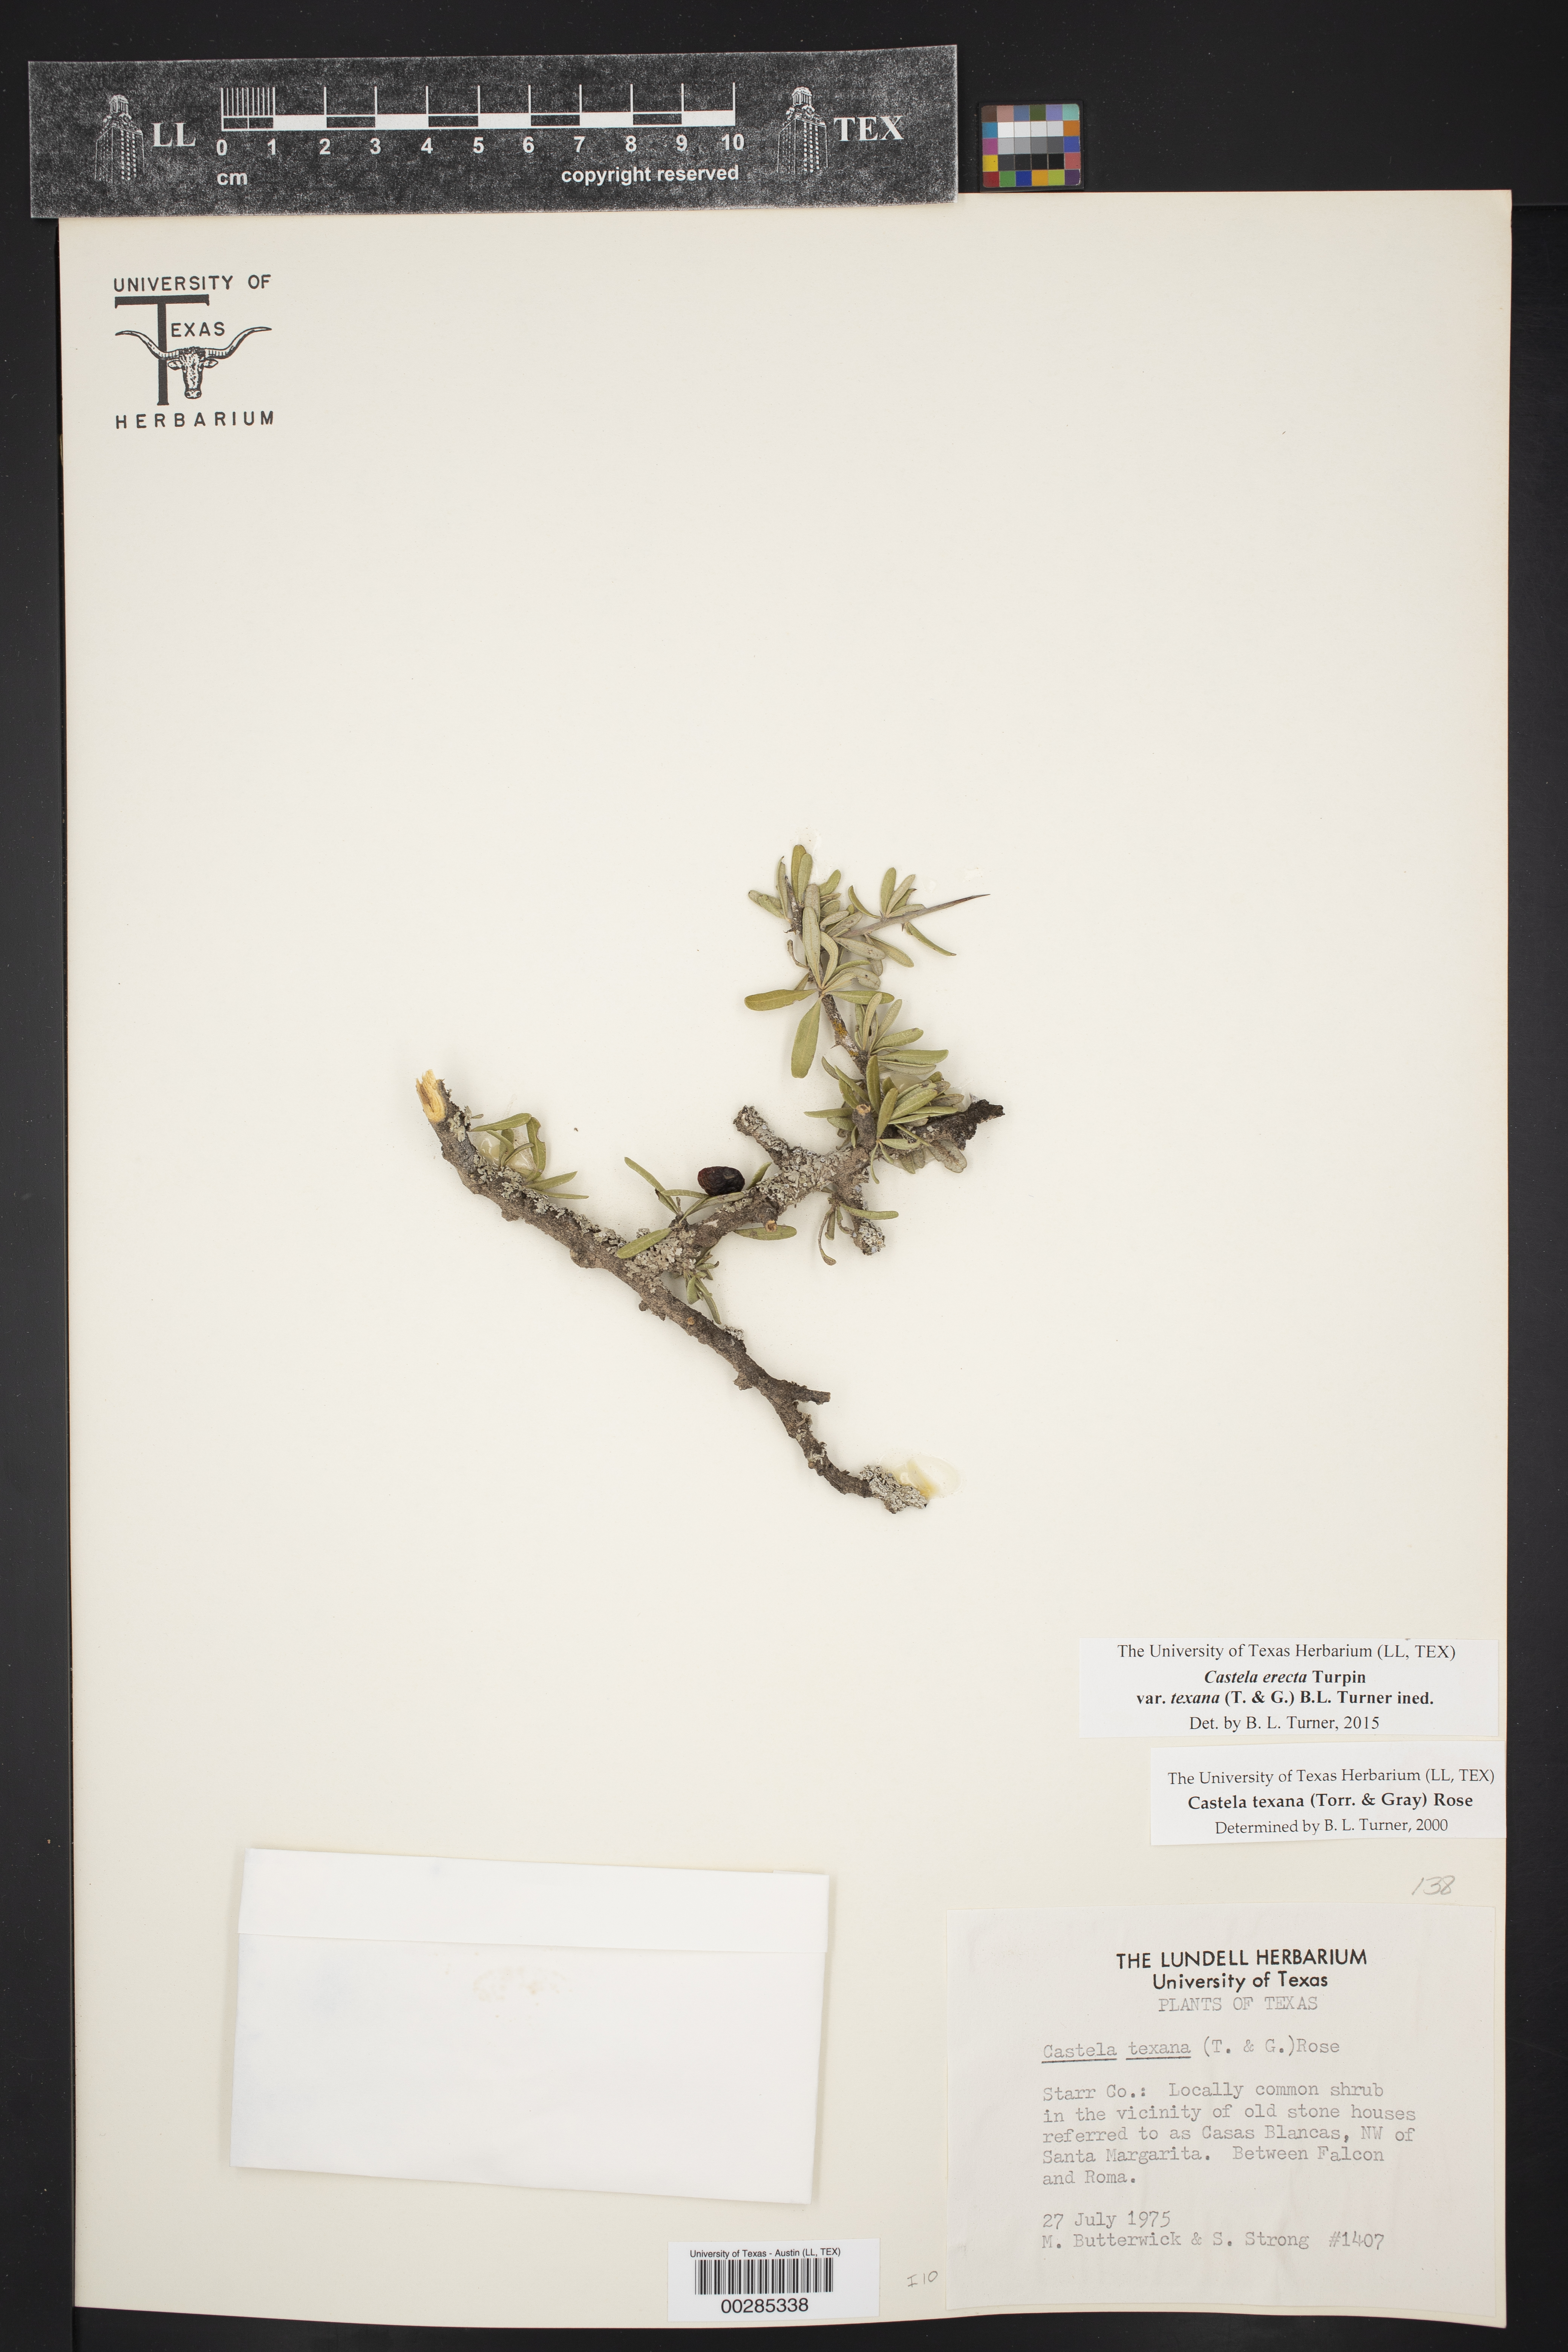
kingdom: Plantae
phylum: Tracheophyta
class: Magnoliopsida
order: Sapindales
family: Simaroubaceae
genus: Castela
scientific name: Castela tortuosa
